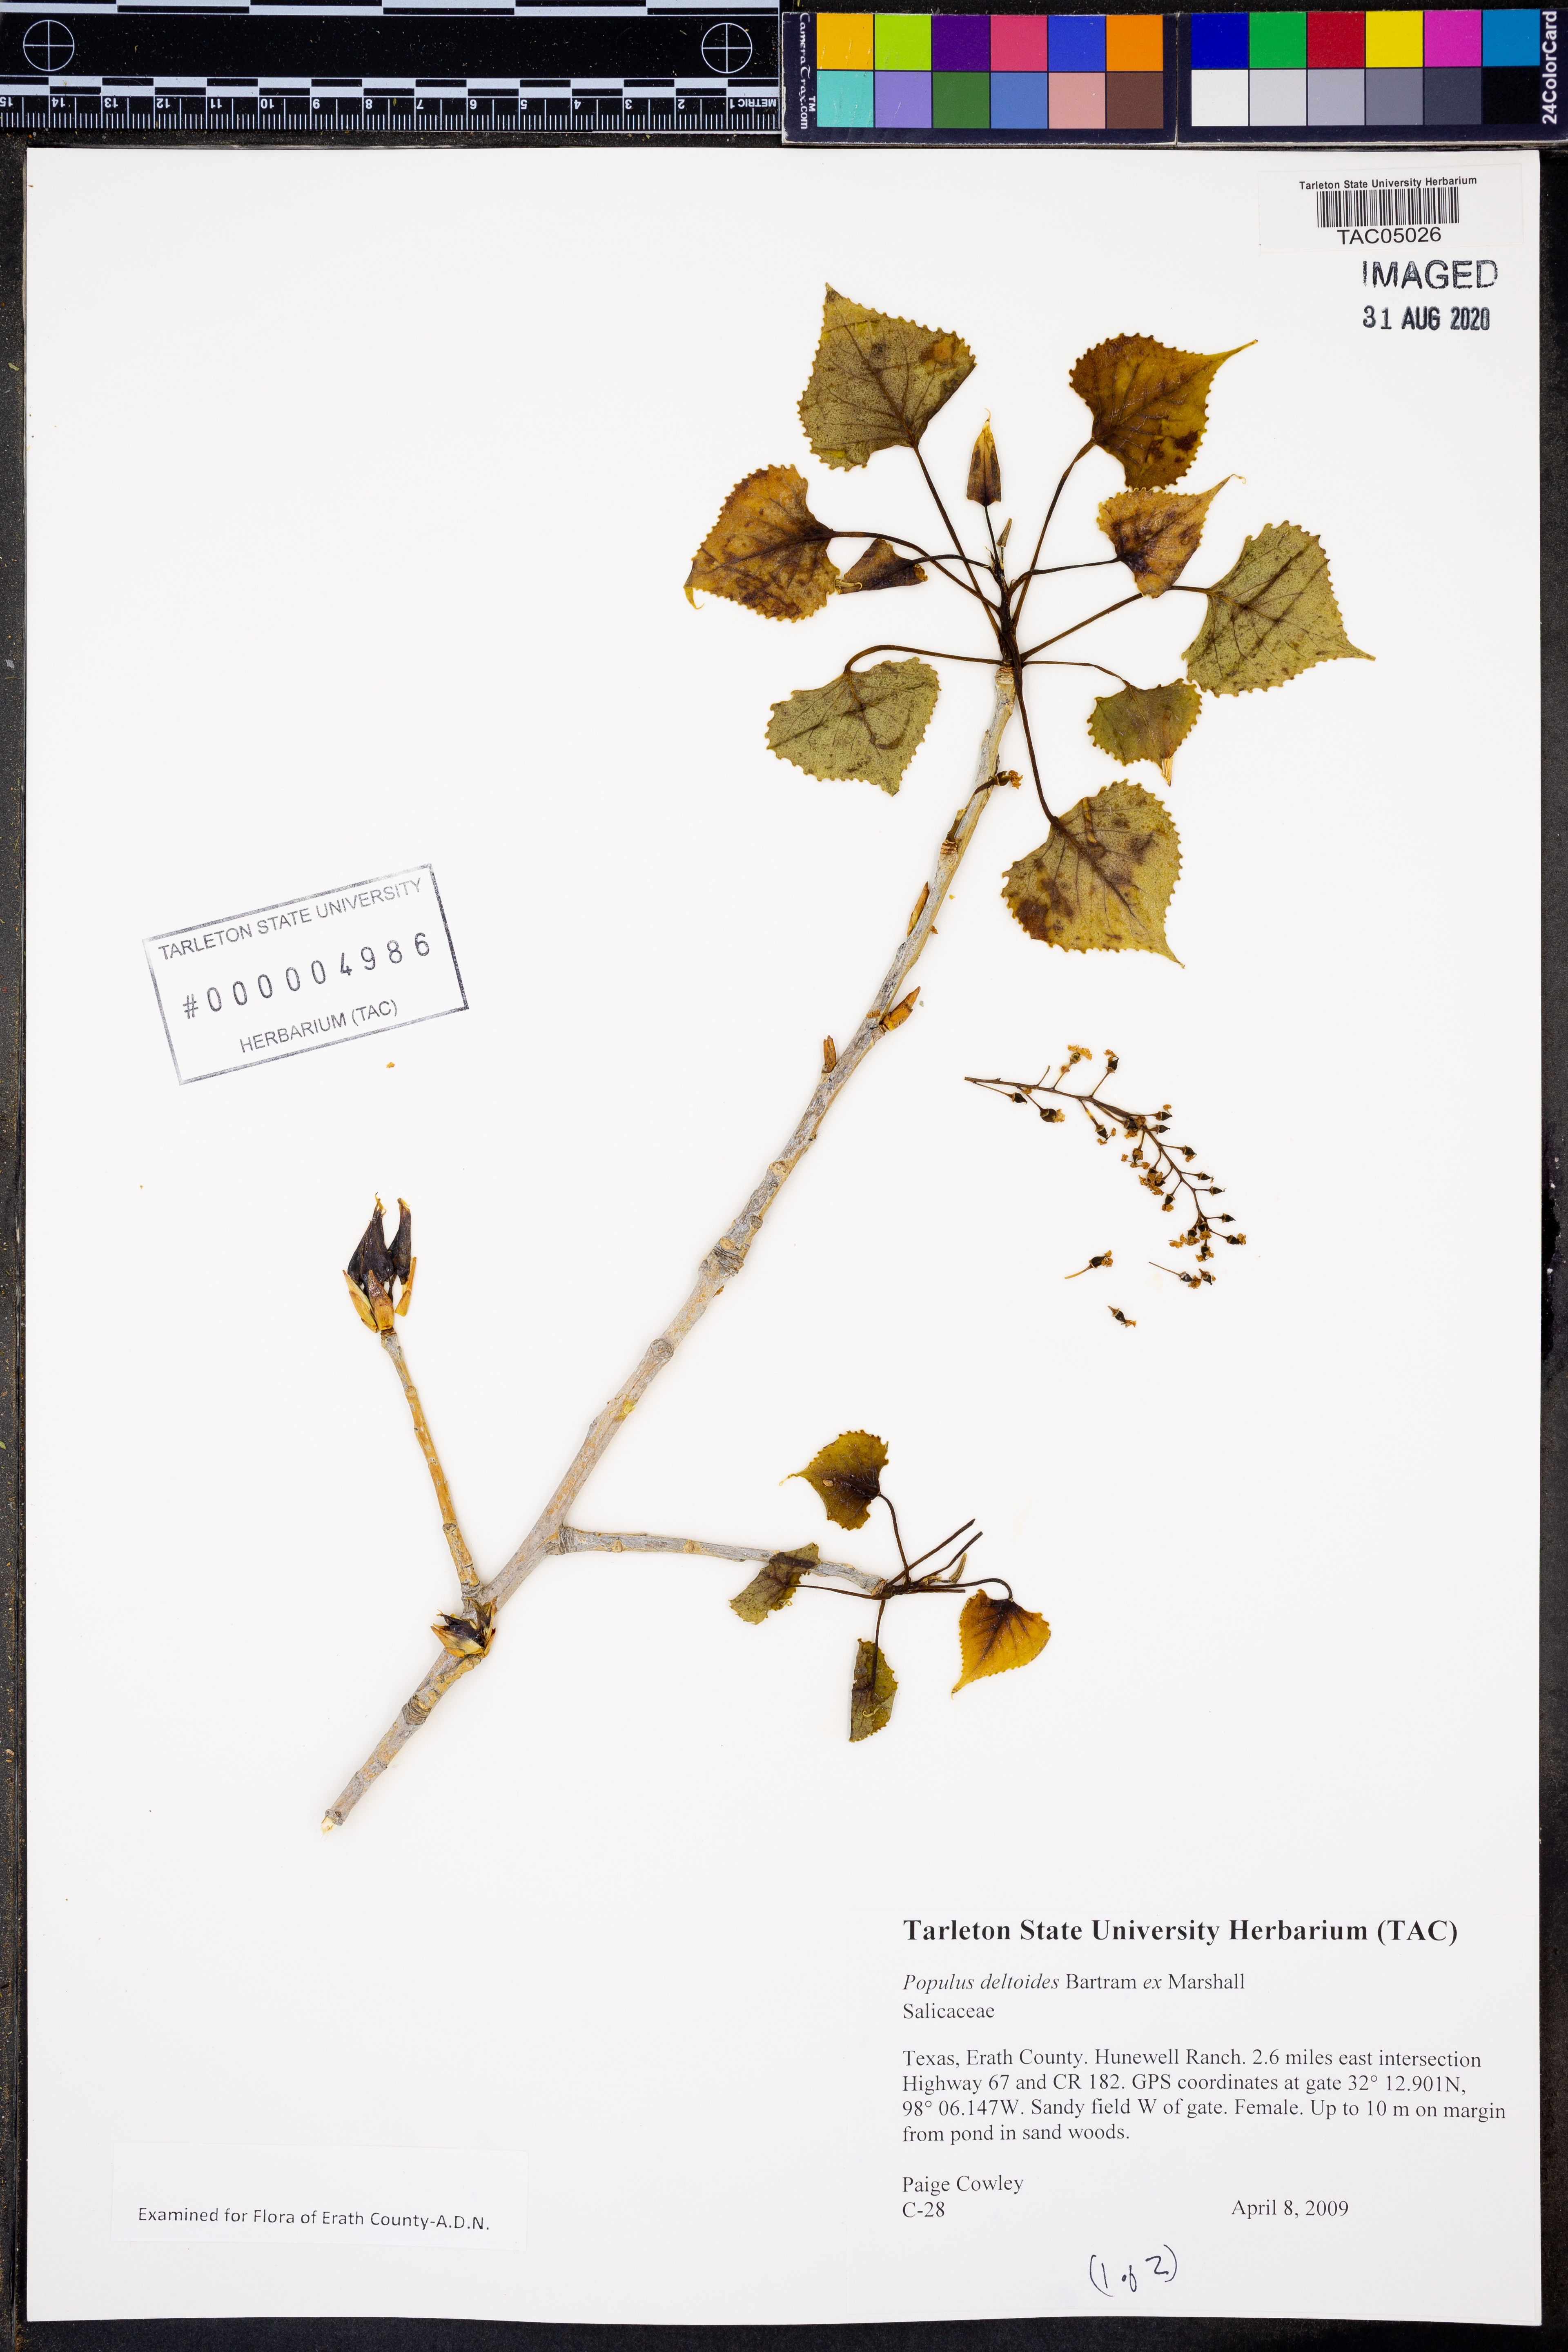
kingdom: Plantae
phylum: Tracheophyta
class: Magnoliopsida
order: Malpighiales
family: Salicaceae
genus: Populus
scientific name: Populus deltoides
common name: Eastern cottonwood
